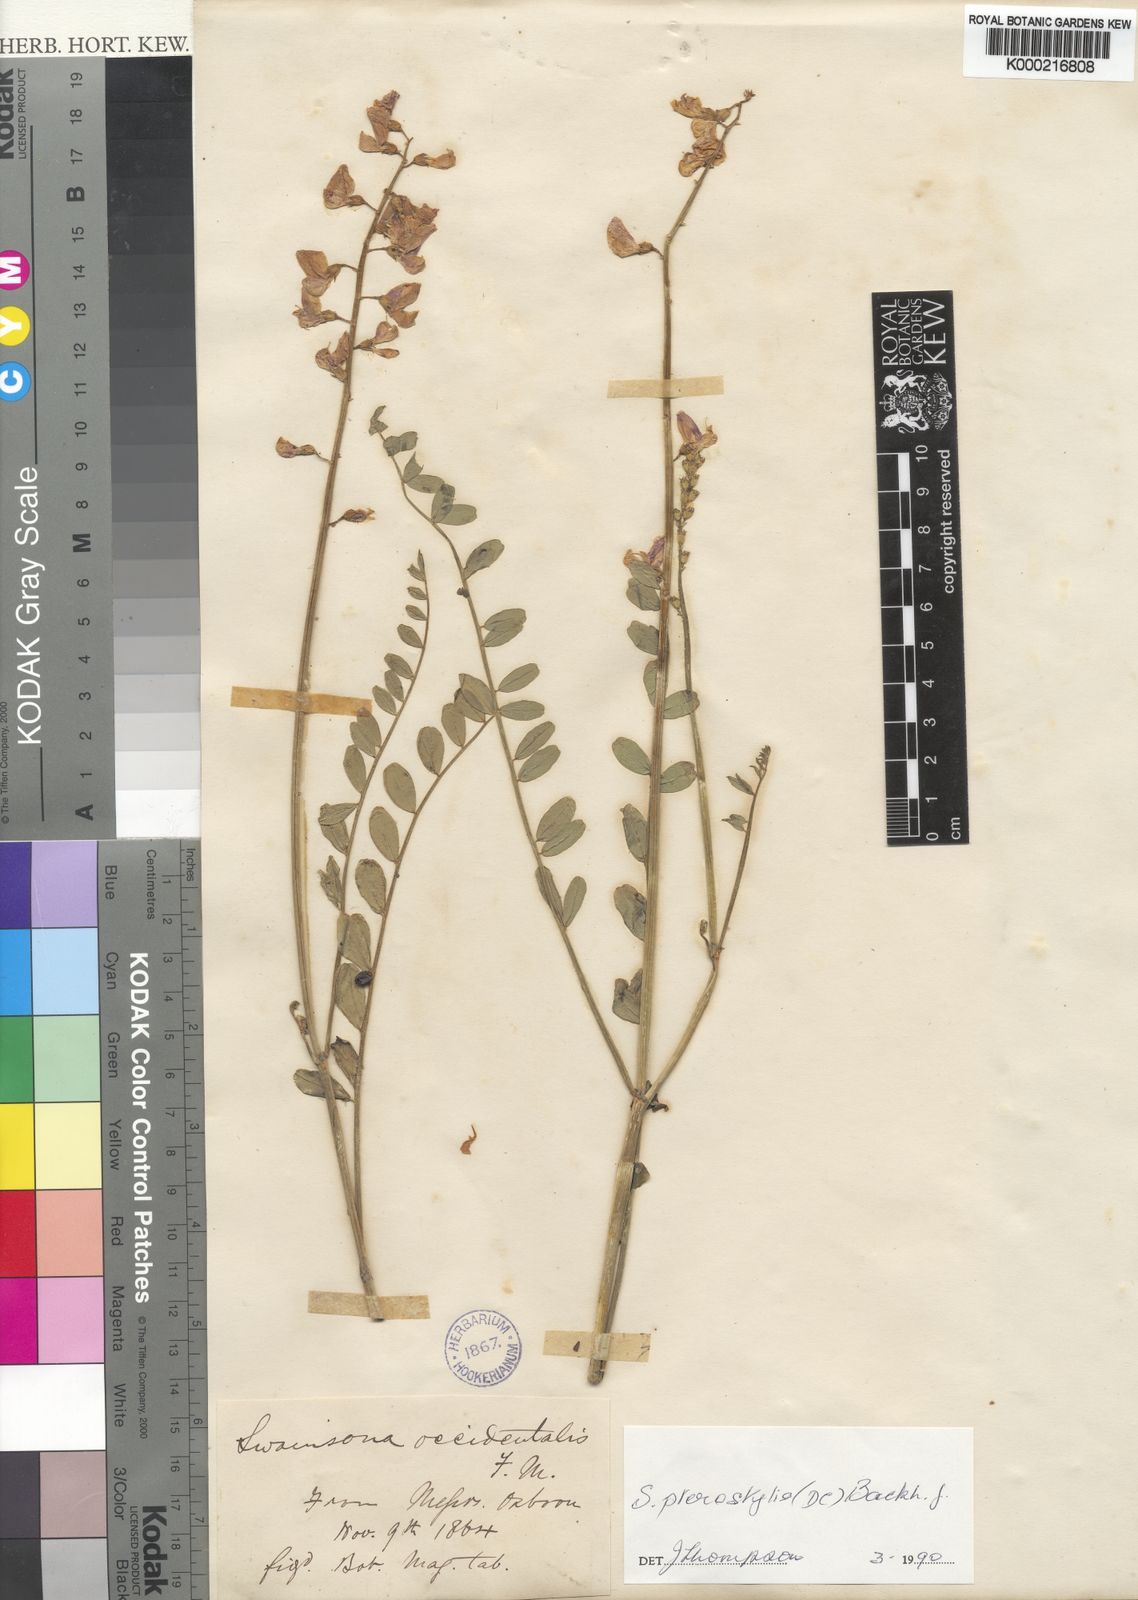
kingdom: Plantae
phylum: Tracheophyta
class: Magnoliopsida
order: Fabales
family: Fabaceae
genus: Swainsona
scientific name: Swainsona pterostylis
